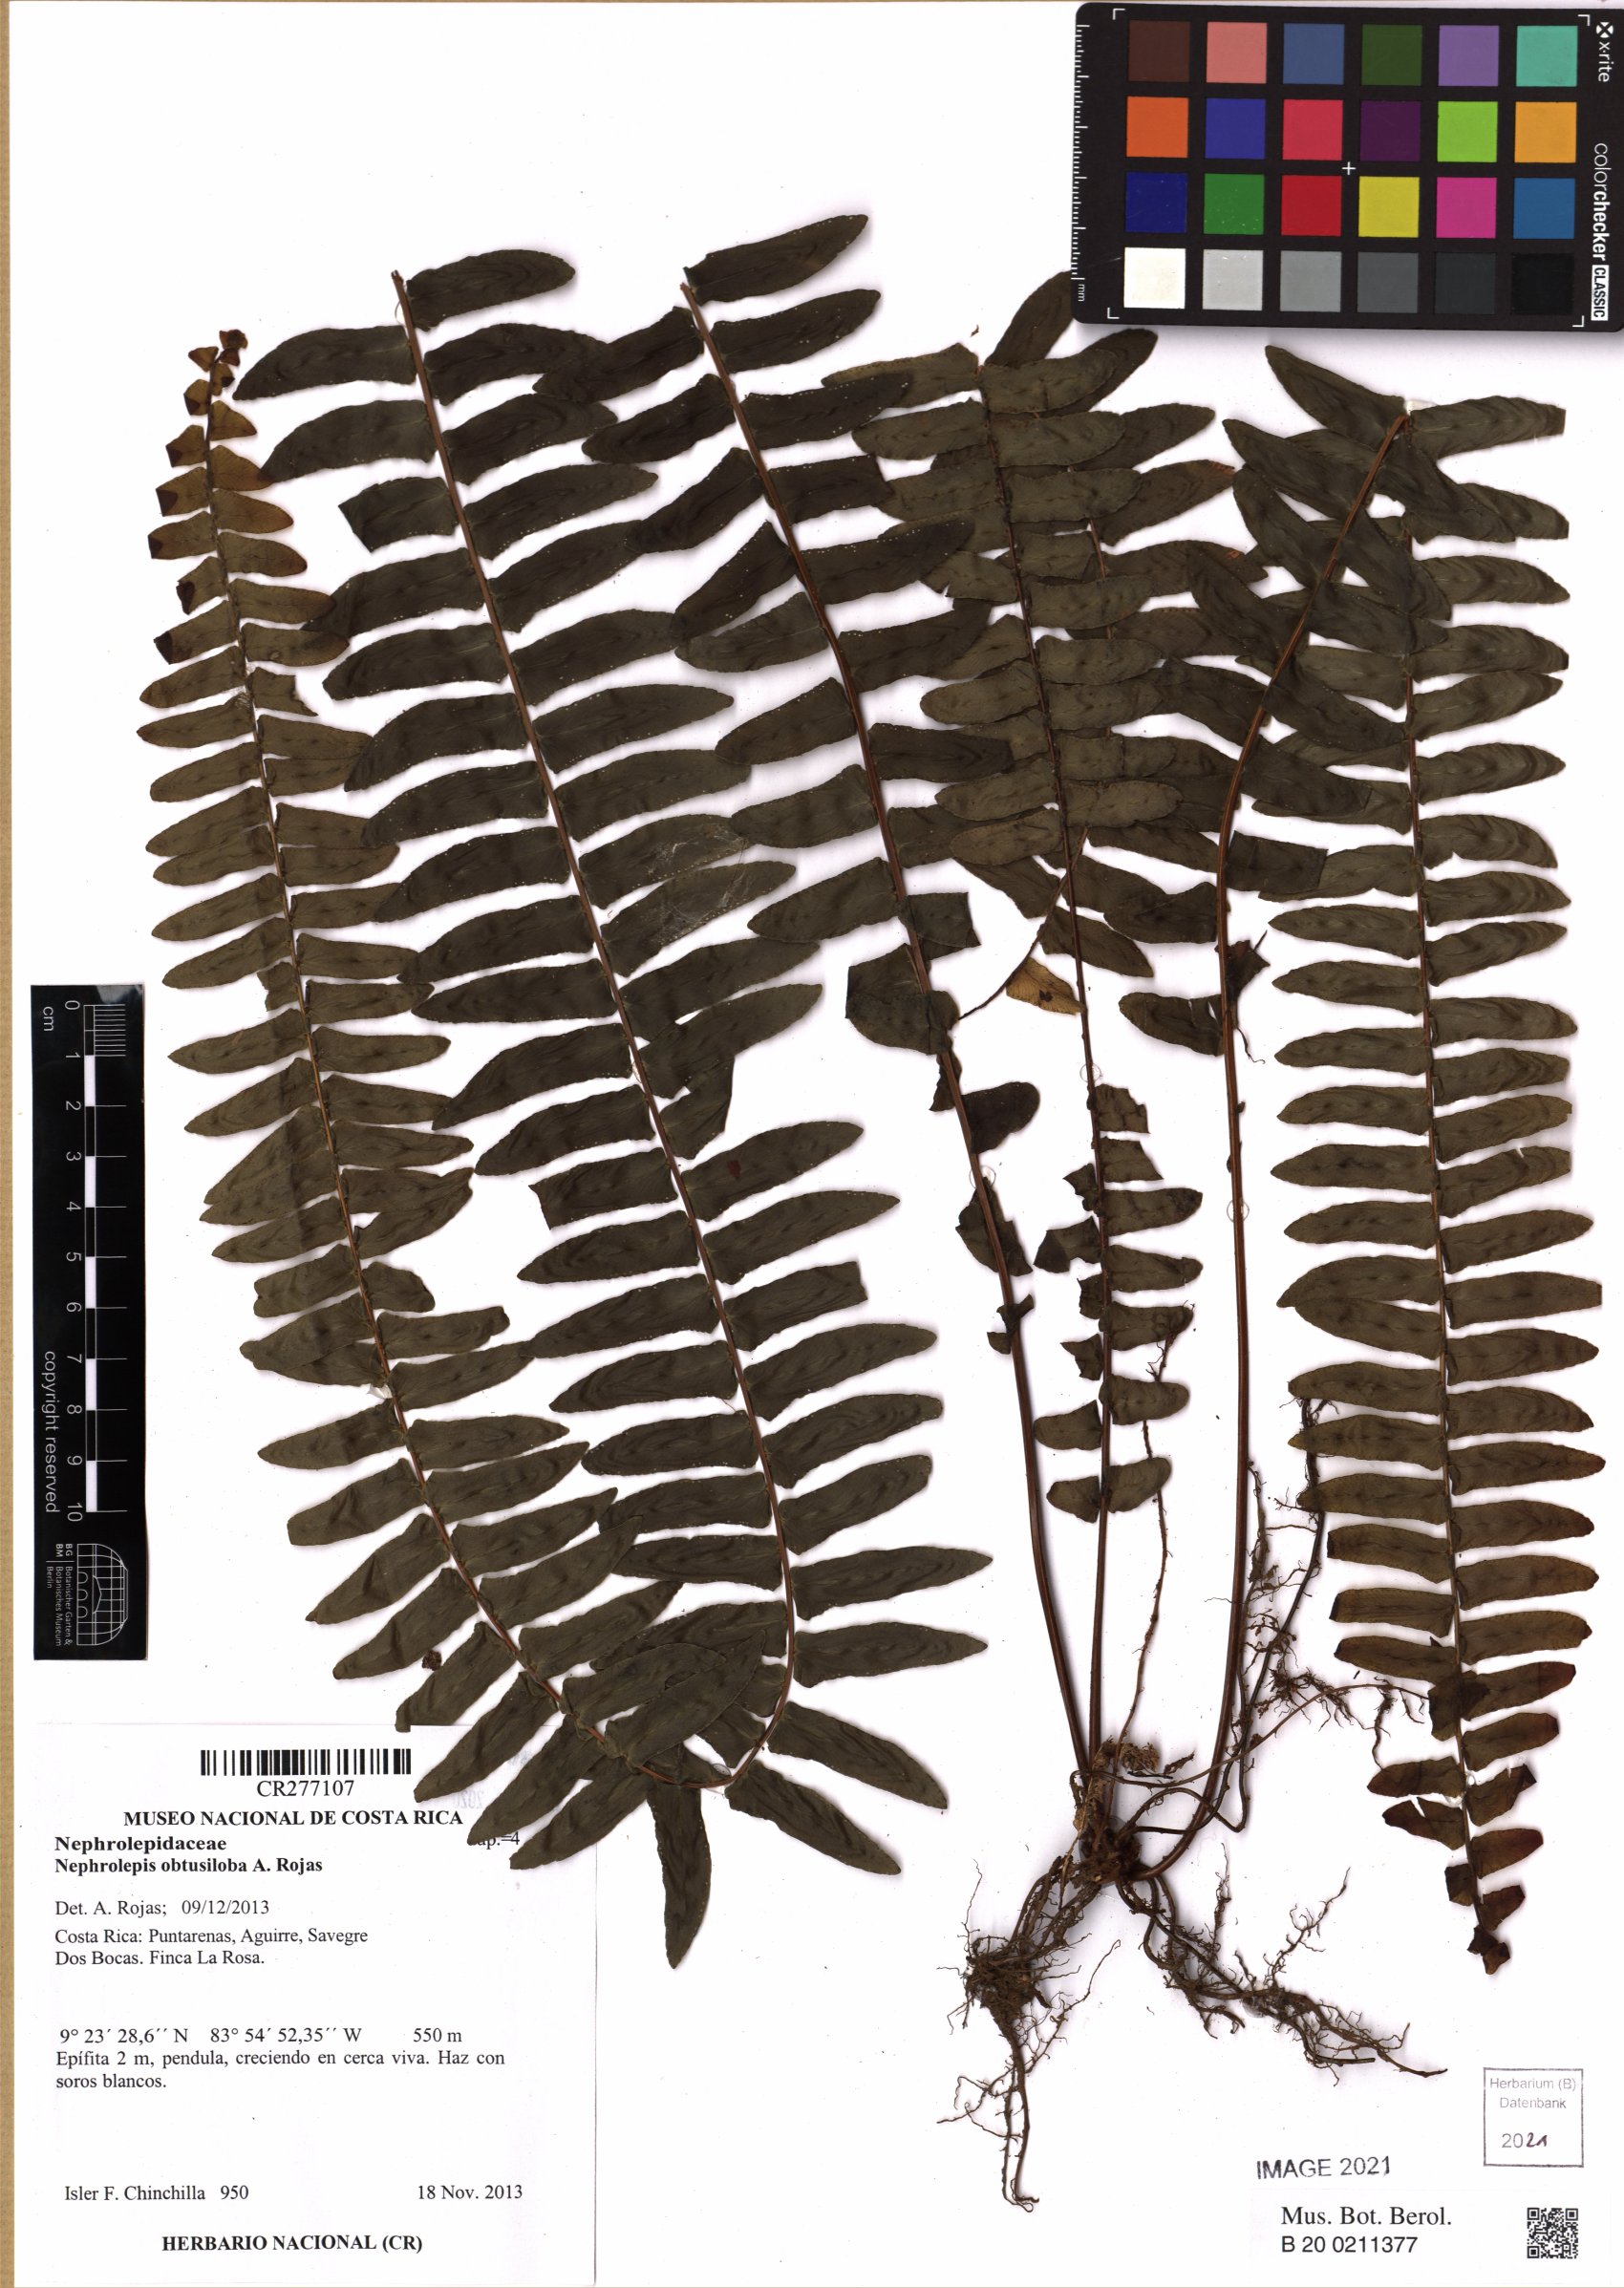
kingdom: Plantae
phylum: Tracheophyta
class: Polypodiopsida
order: Polypodiales
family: Nephrolepidaceae
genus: Nephrolepis
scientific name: Nephrolepis
